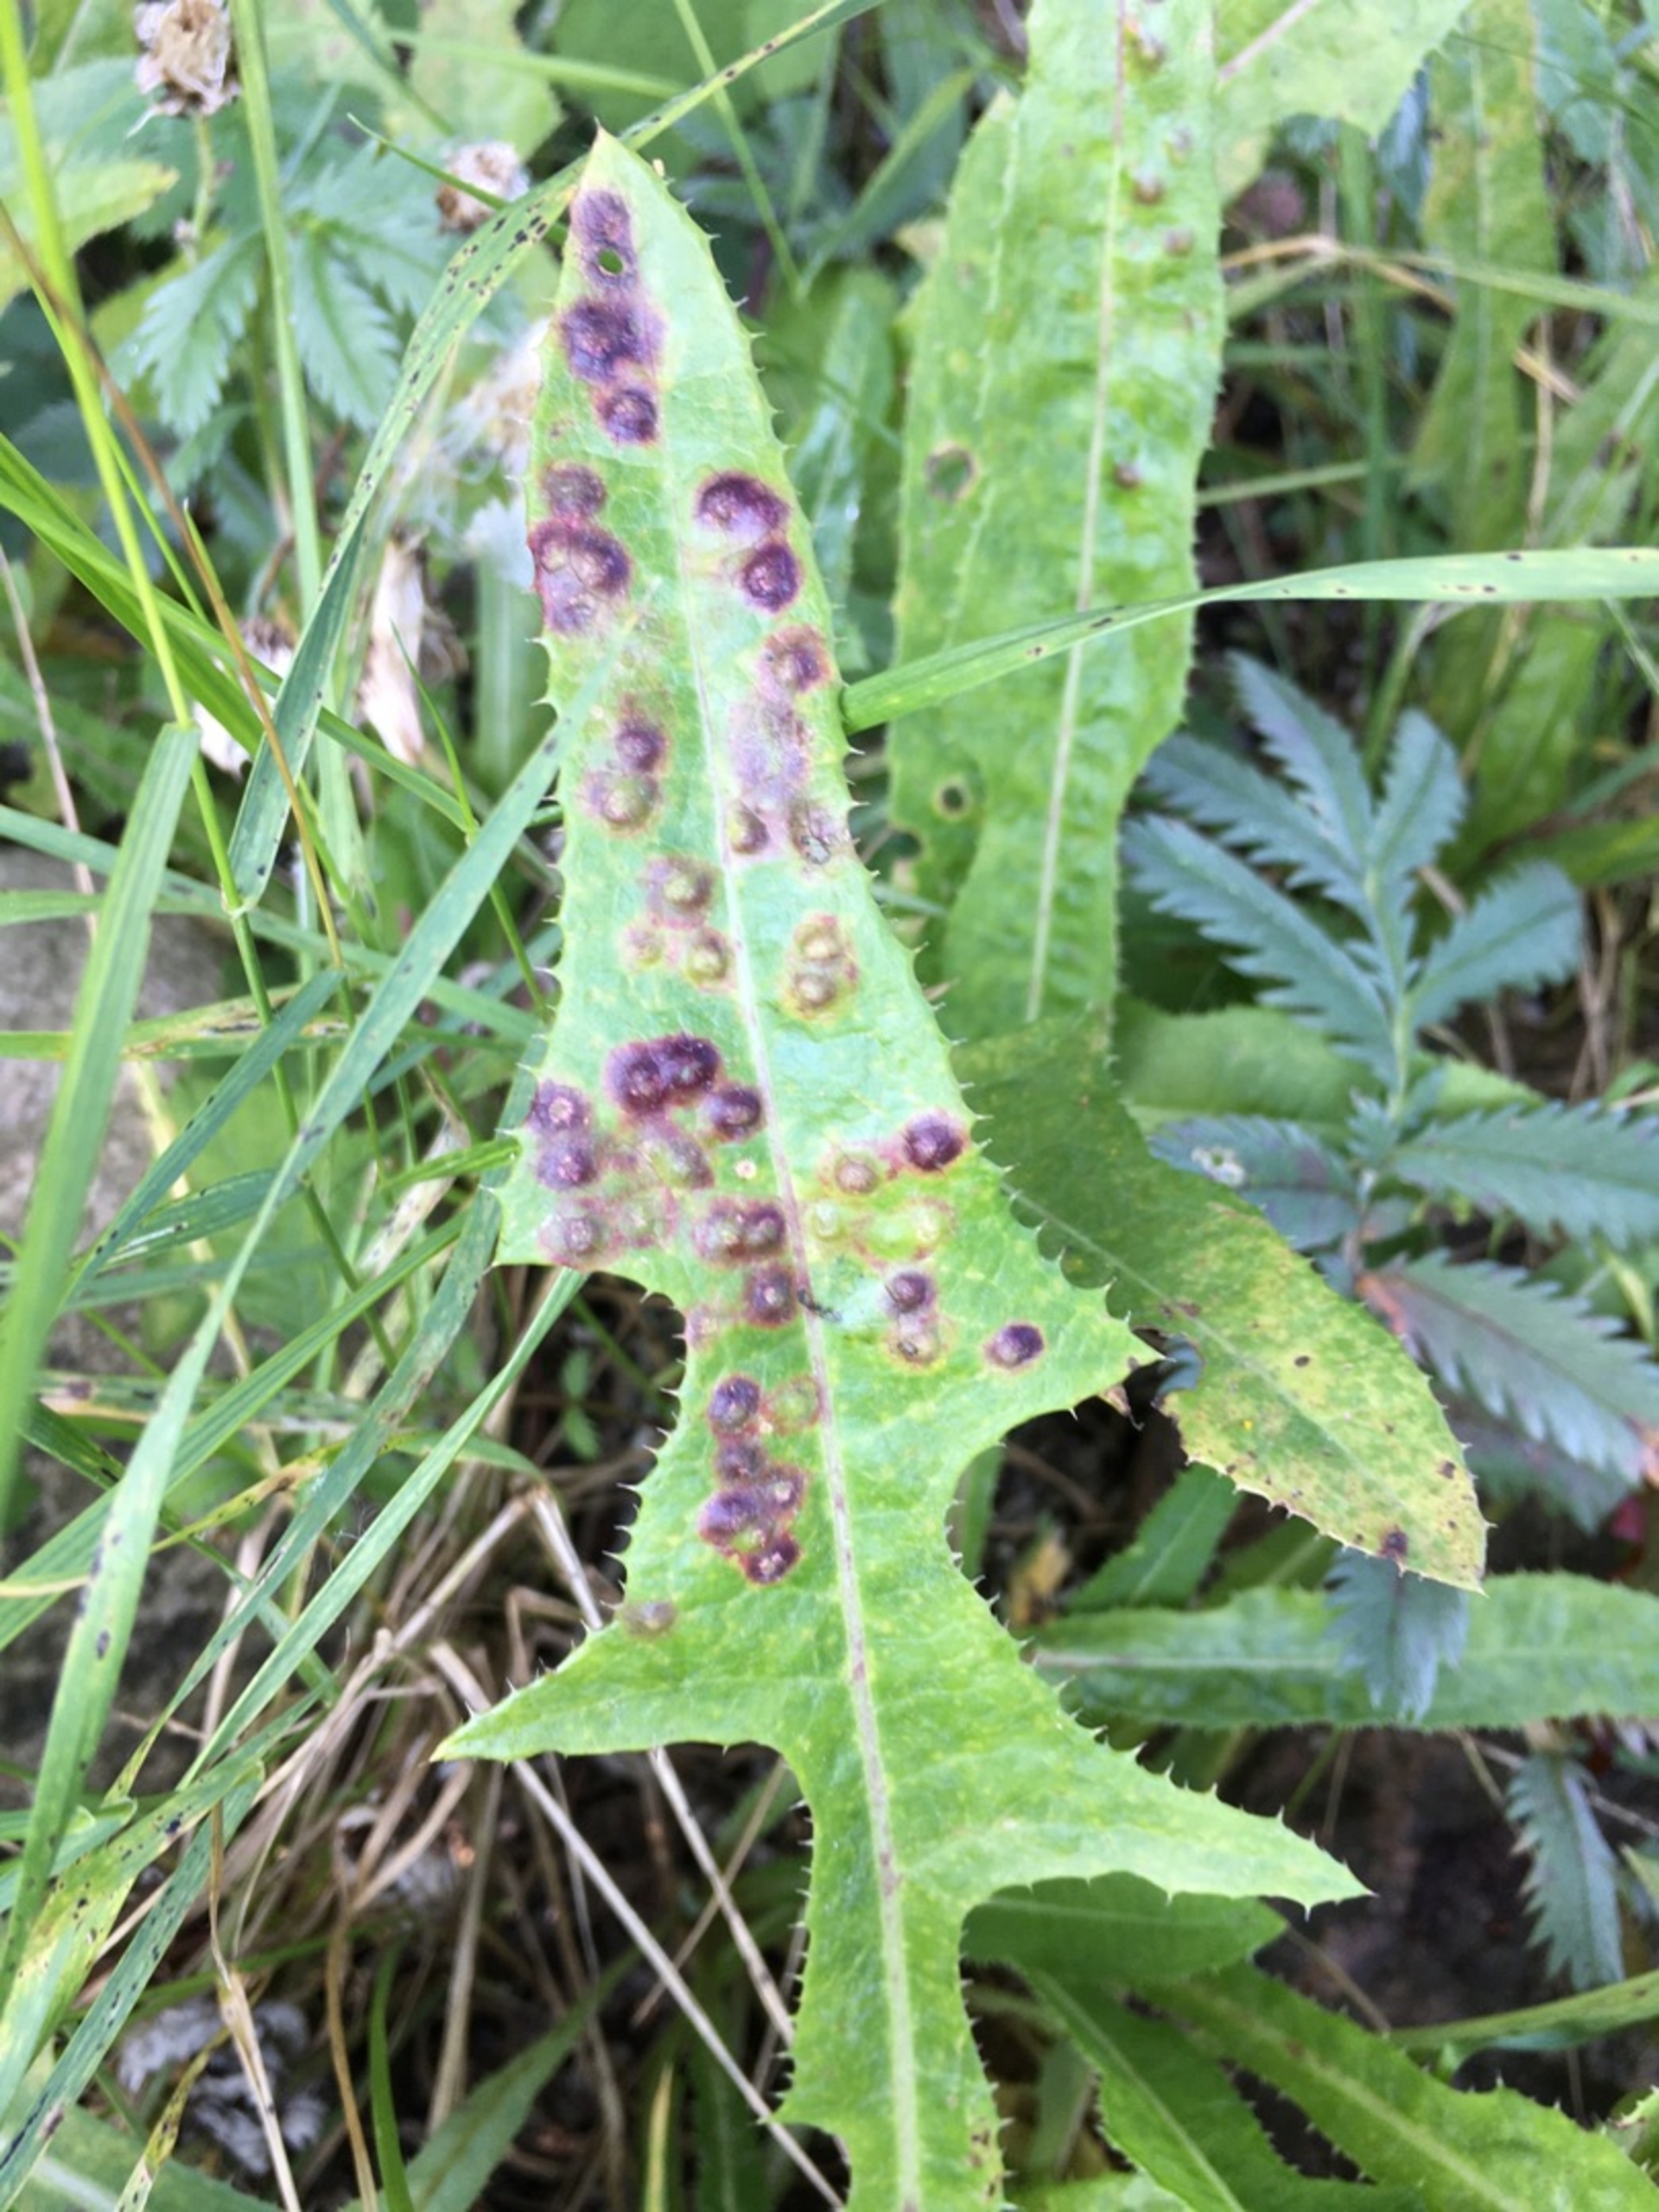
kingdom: Animalia
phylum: Arthropoda
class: Insecta
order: Diptera
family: Cecidomyiidae
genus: Cystiphora
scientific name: Cystiphora sonchi
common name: Svineblæregalmyg
